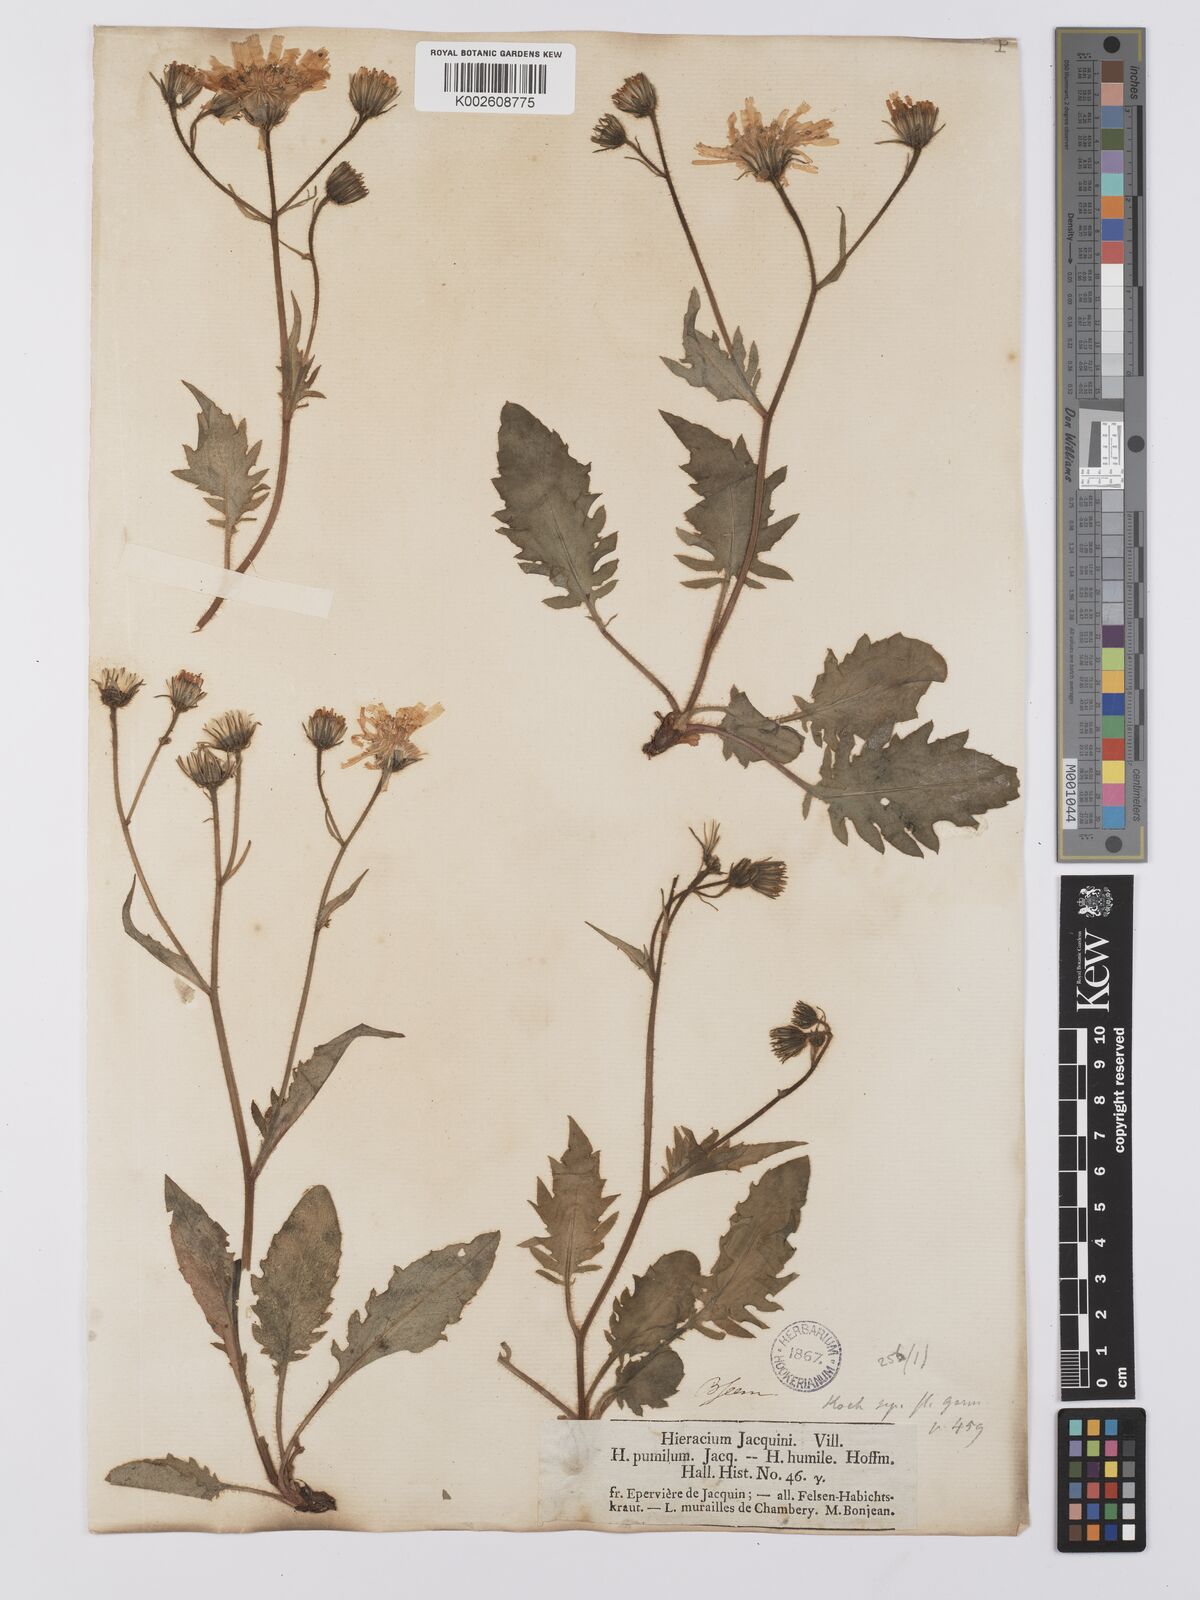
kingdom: Plantae
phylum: Tracheophyta
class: Magnoliopsida
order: Asterales
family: Asteraceae
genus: Hieracium
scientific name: Hieracium humile
